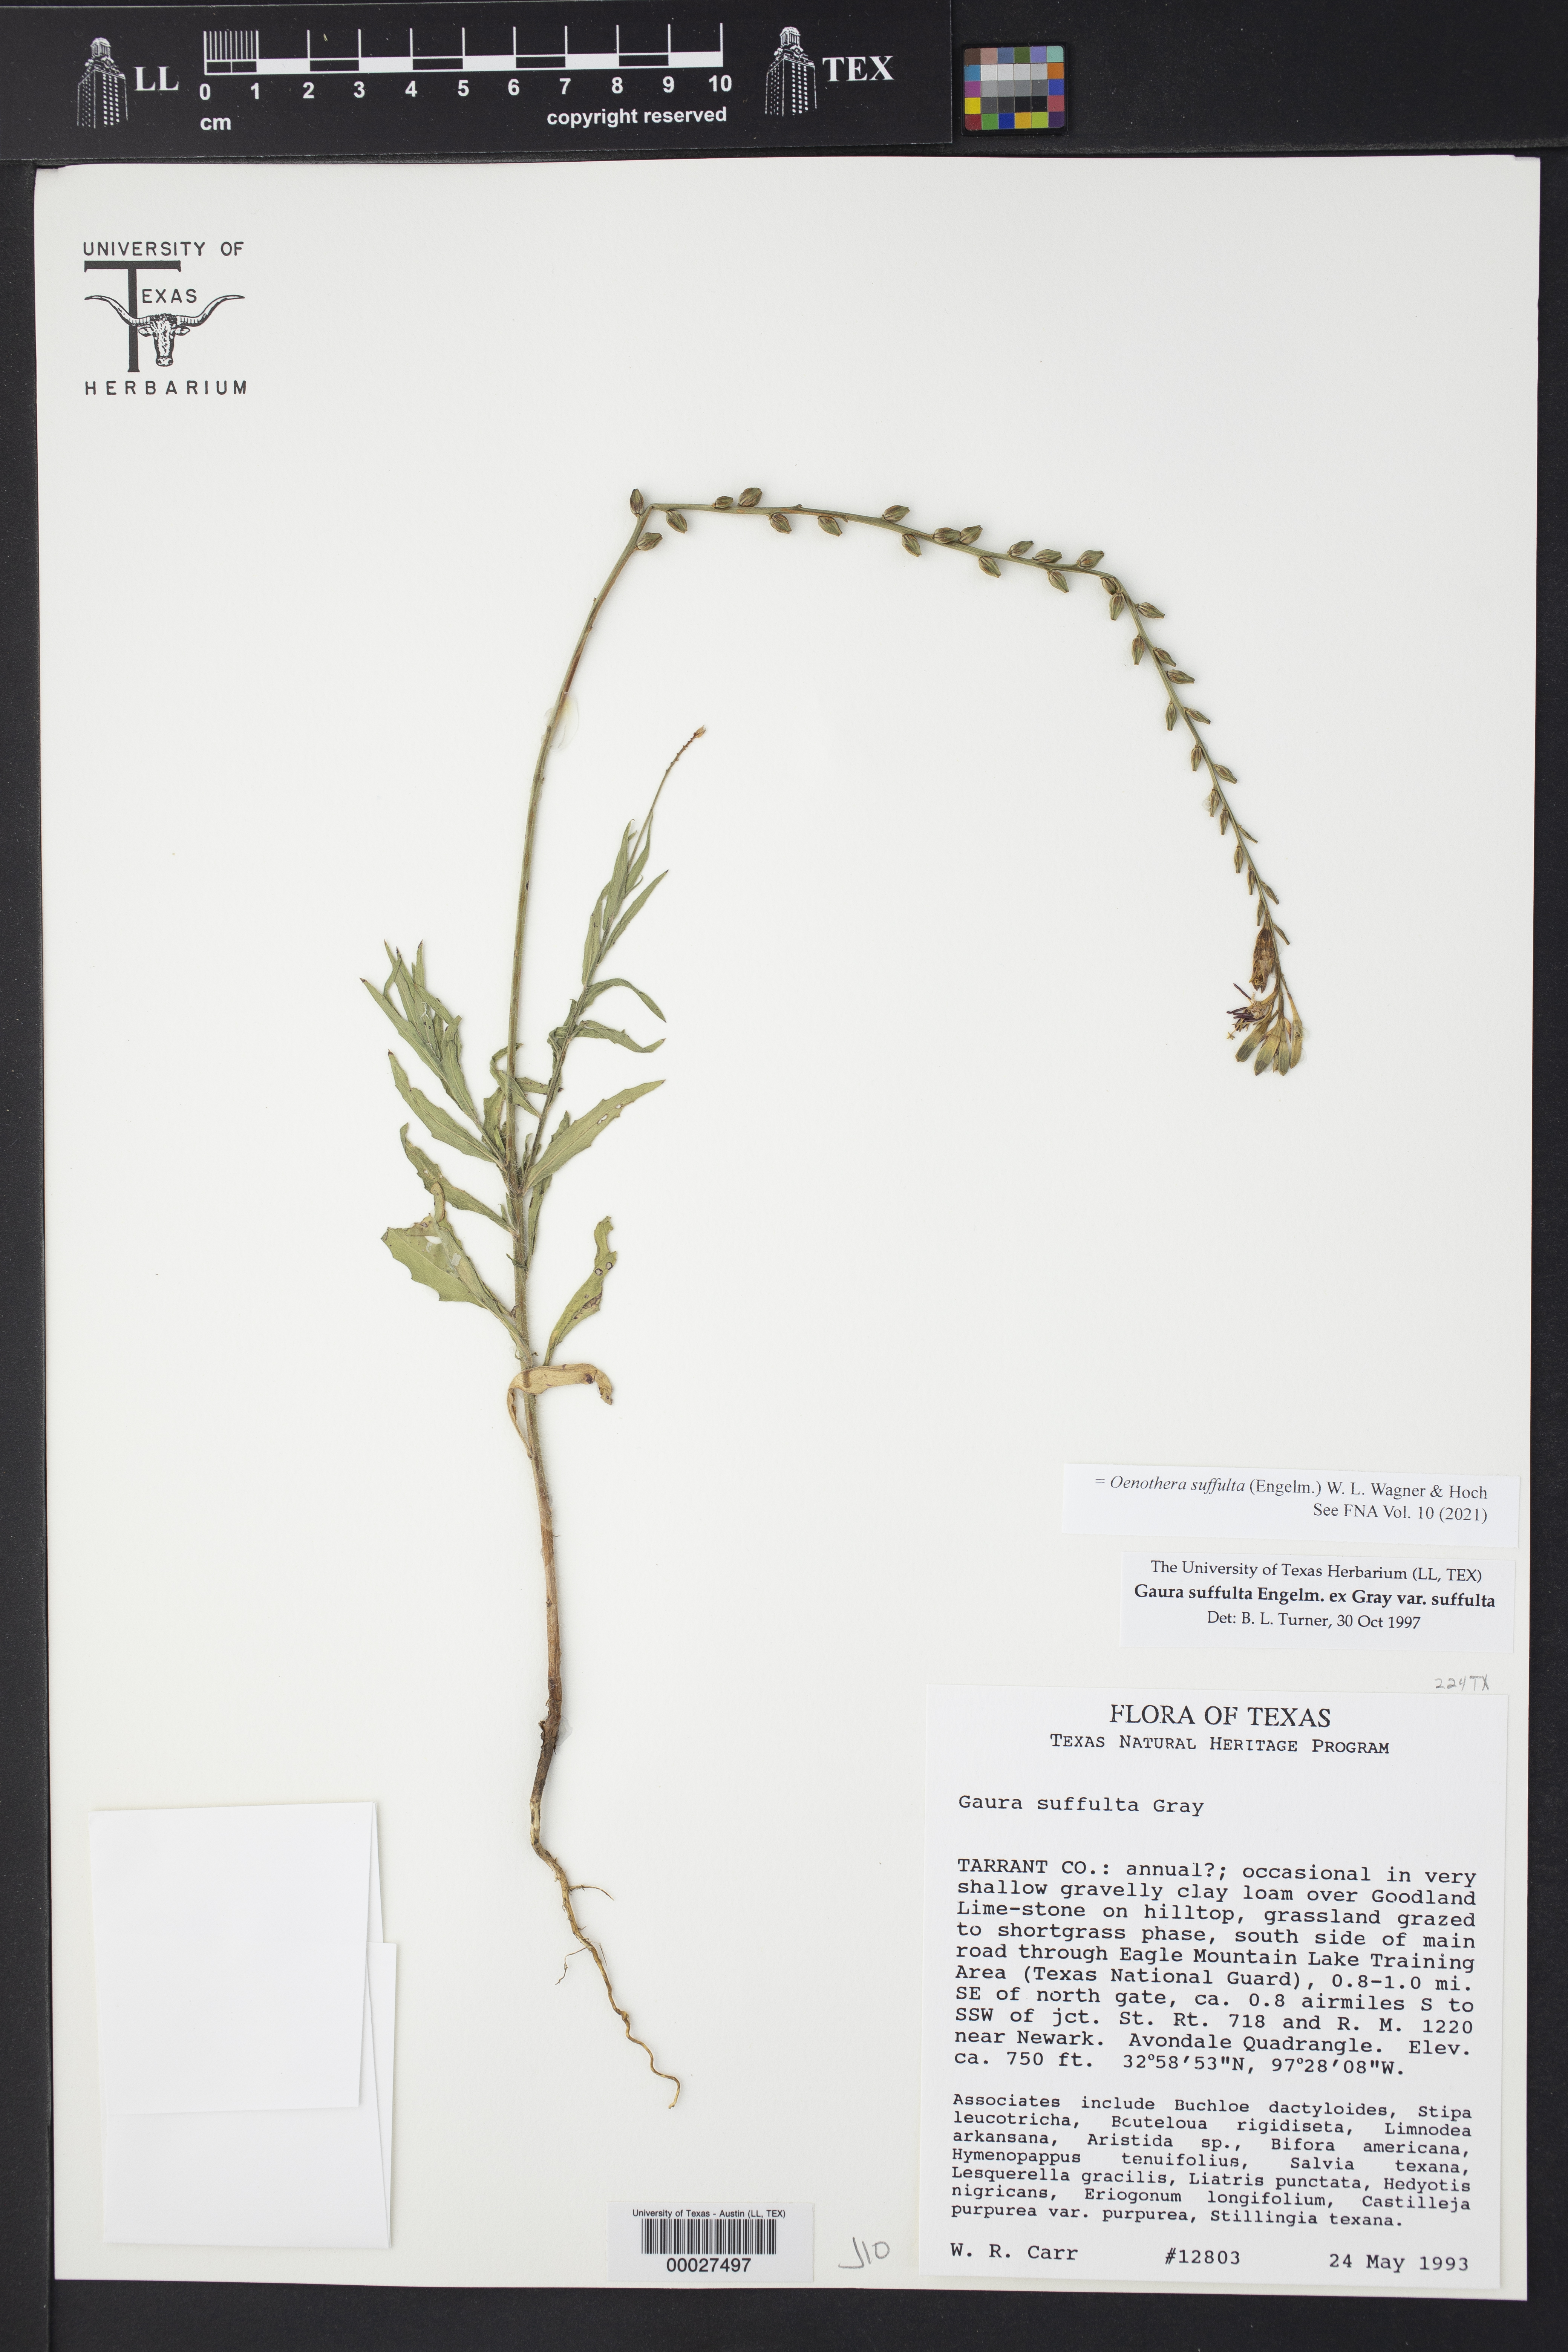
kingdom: Plantae
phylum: Tracheophyta
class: Magnoliopsida
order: Myrtales
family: Onagraceae
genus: Oenothera
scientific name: Oenothera suffulta
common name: Kisses
